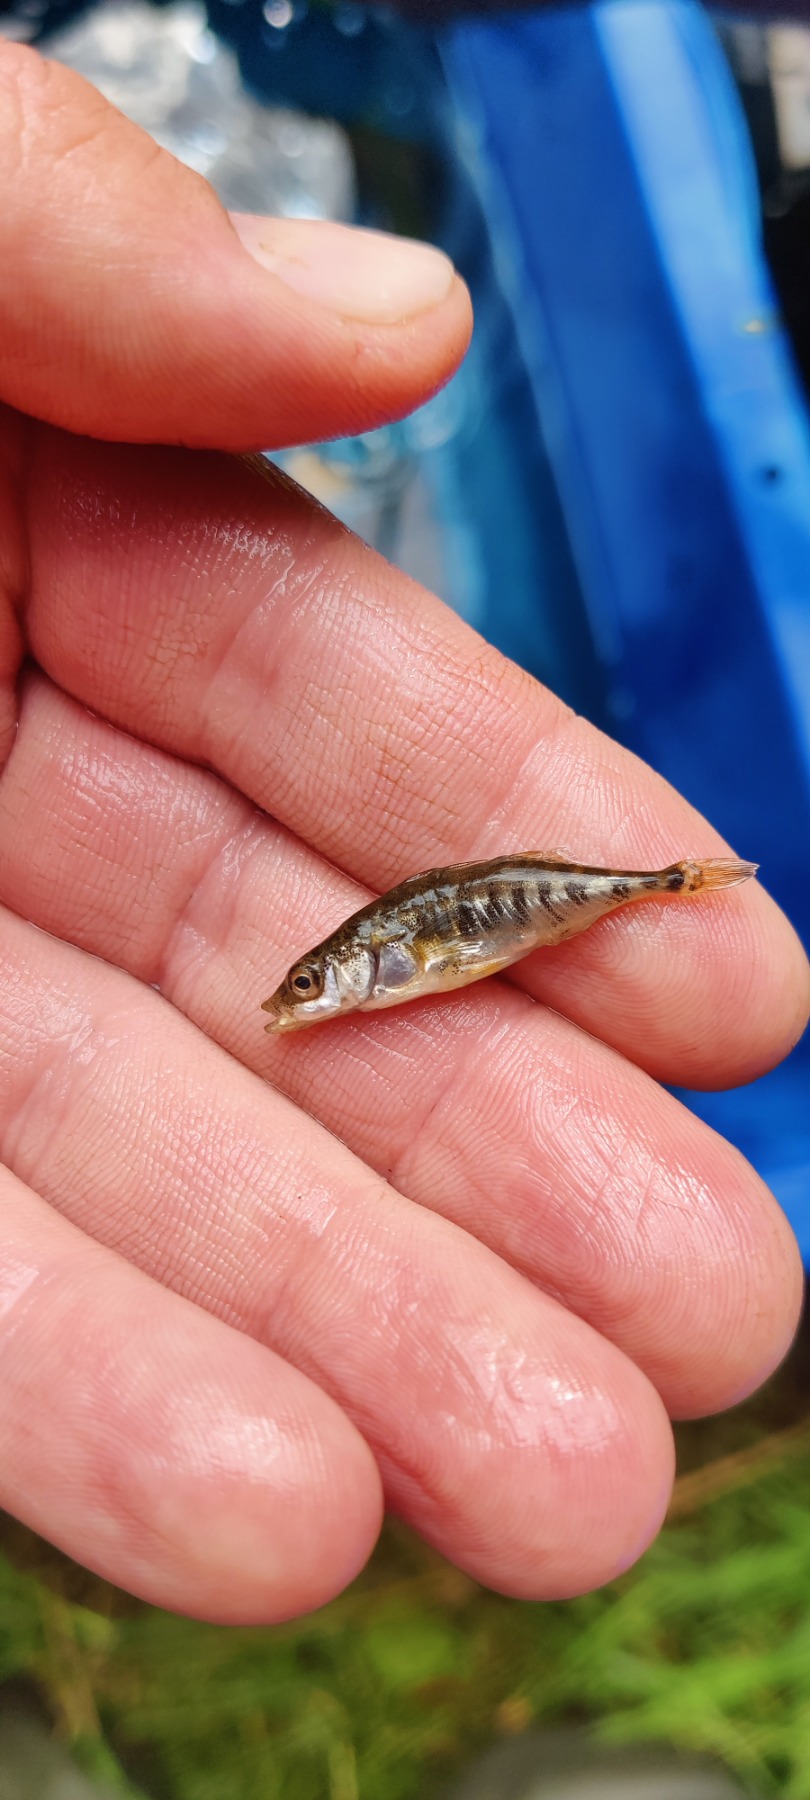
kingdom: Animalia
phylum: Chordata
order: Gasterosteiformes
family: Gasterosteidae
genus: Gasterosteus
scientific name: Gasterosteus aculeatus
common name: Trepigget hundestejle
